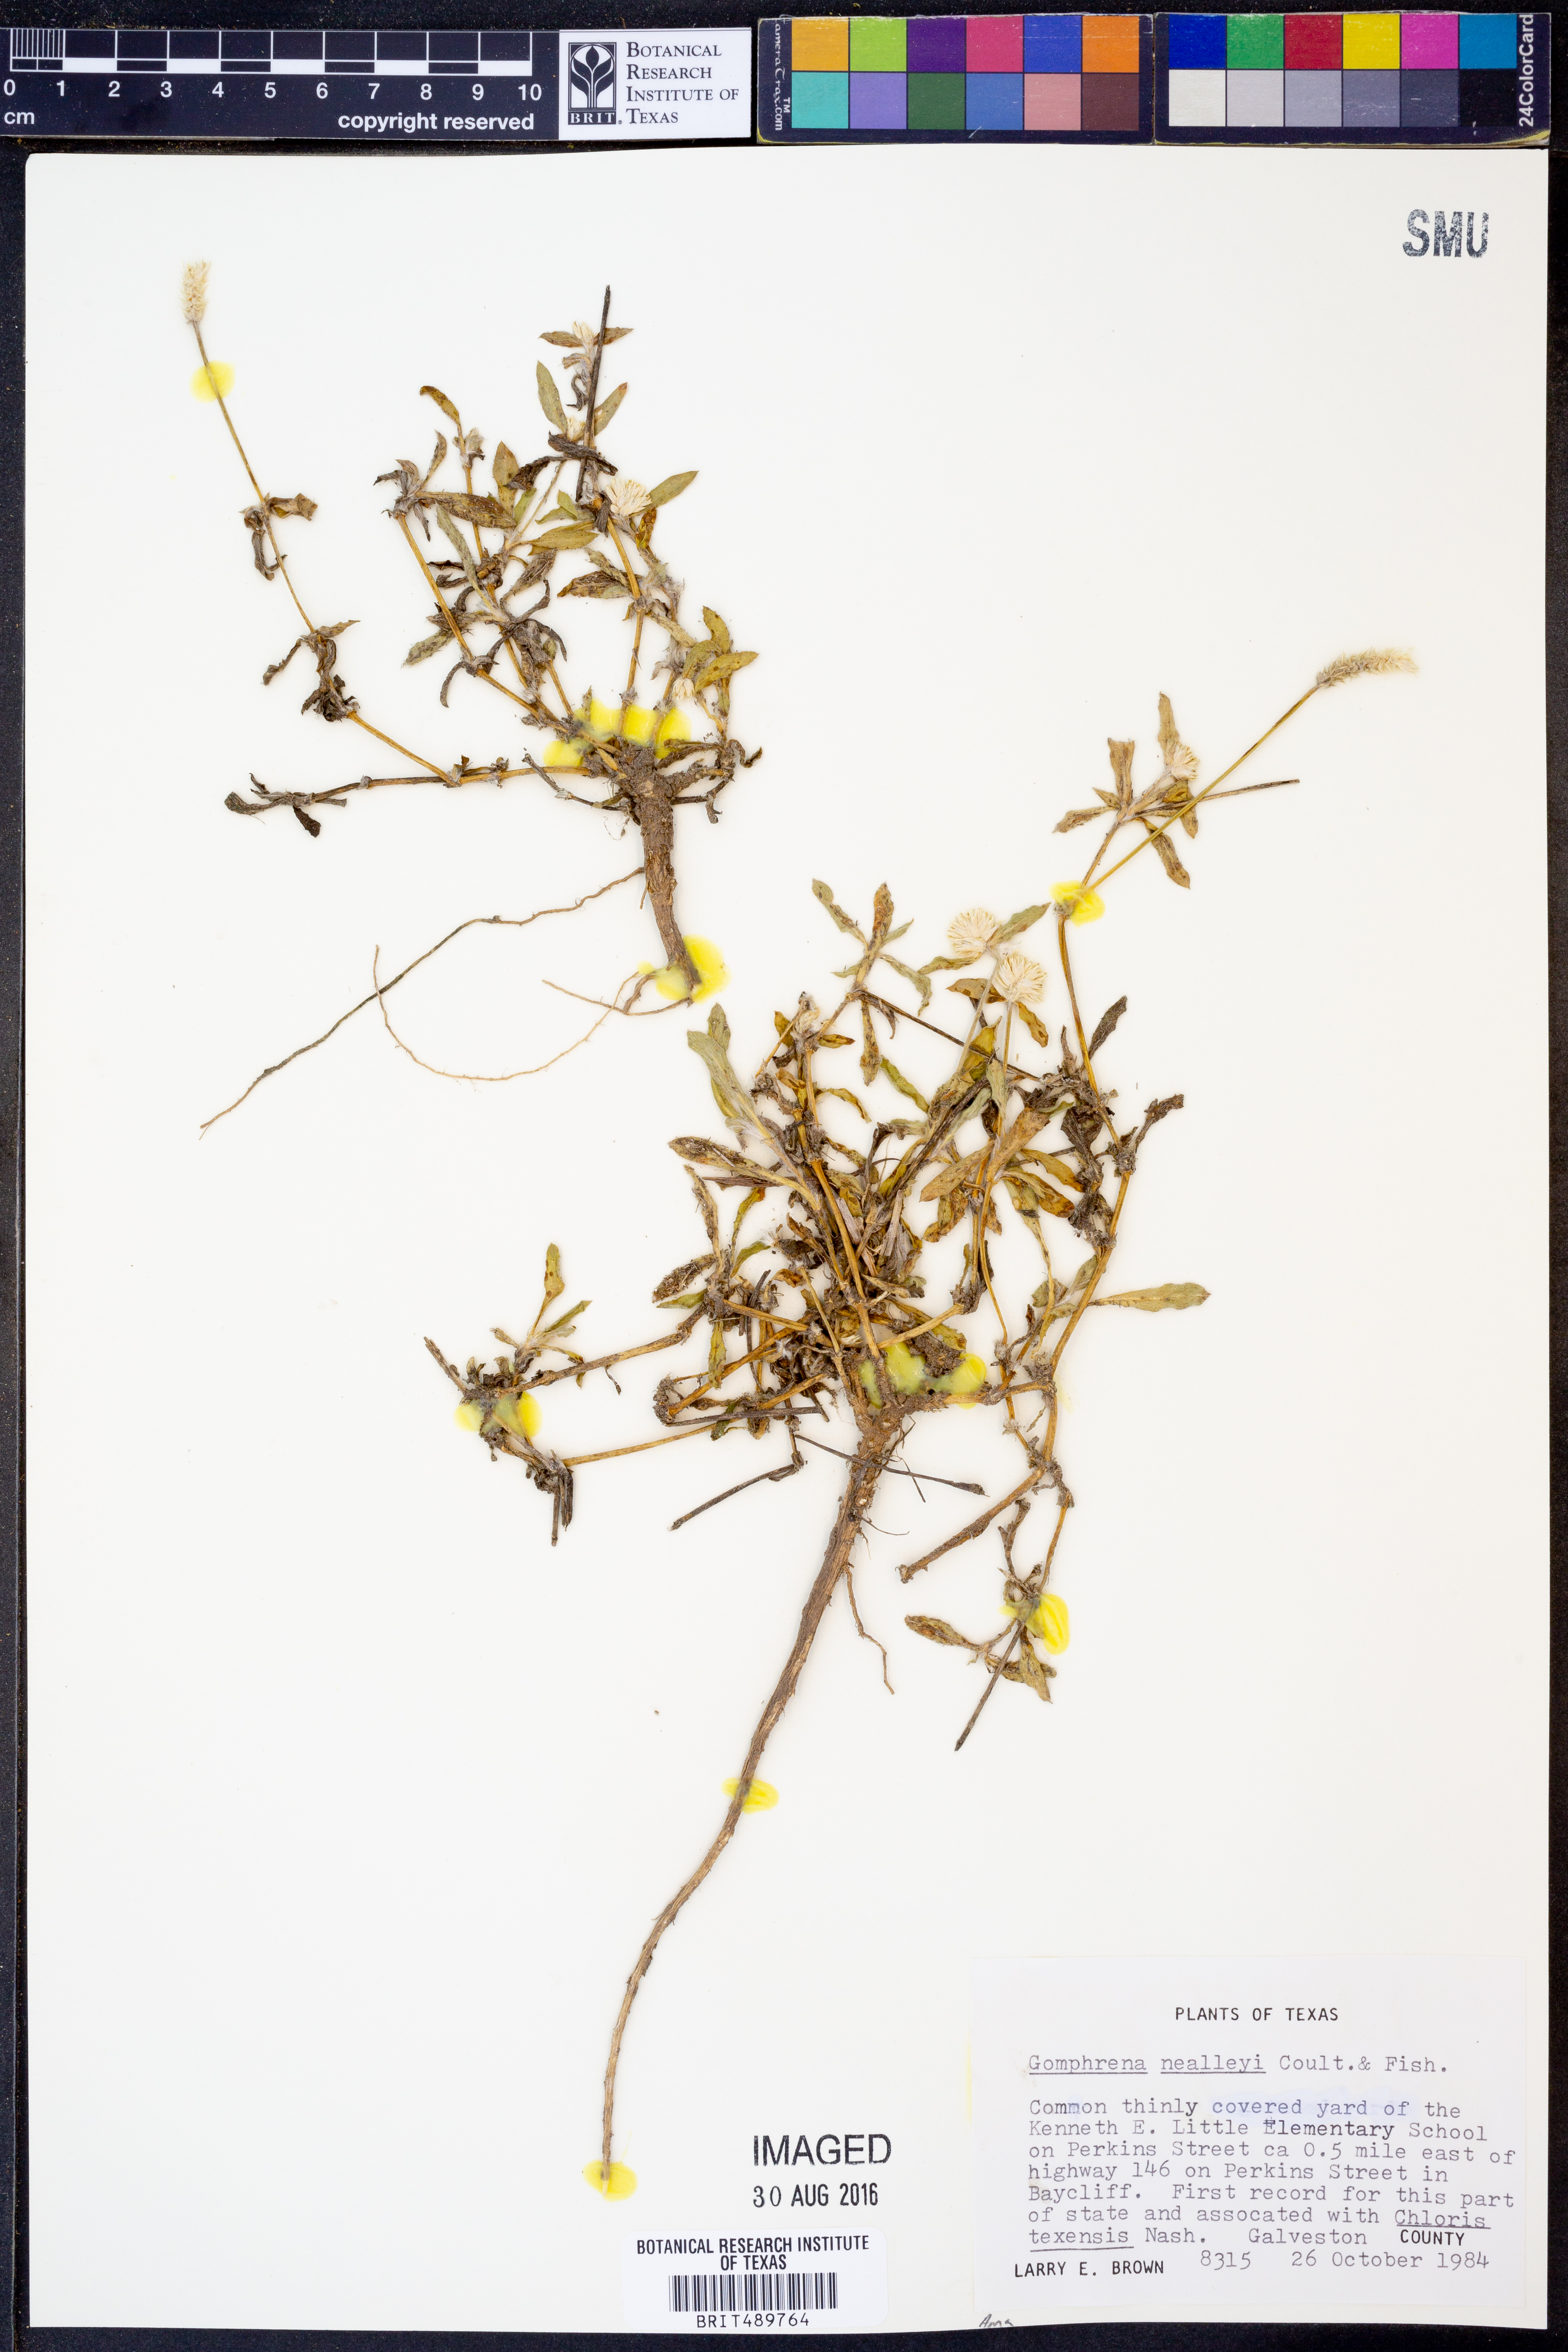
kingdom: Plantae
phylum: Tracheophyta
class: Magnoliopsida
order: Caryophyllales
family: Amaranthaceae
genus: Gomphrena
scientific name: Gomphrena nealleyi
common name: Nealley's globe-amaranth
